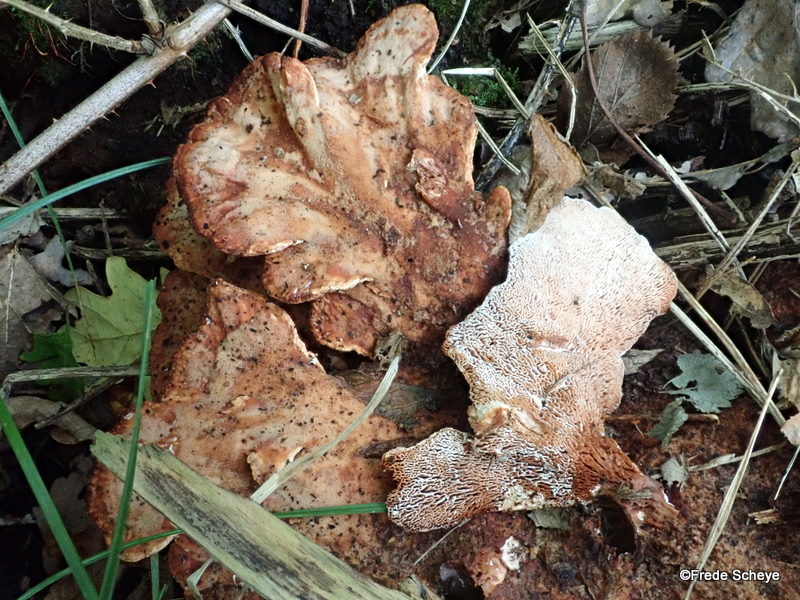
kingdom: Fungi
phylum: Basidiomycota
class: Agaricomycetes
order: Polyporales
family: Podoscyphaceae
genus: Abortiporus
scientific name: Abortiporus biennis
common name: rødmende pjalteporesvamp
